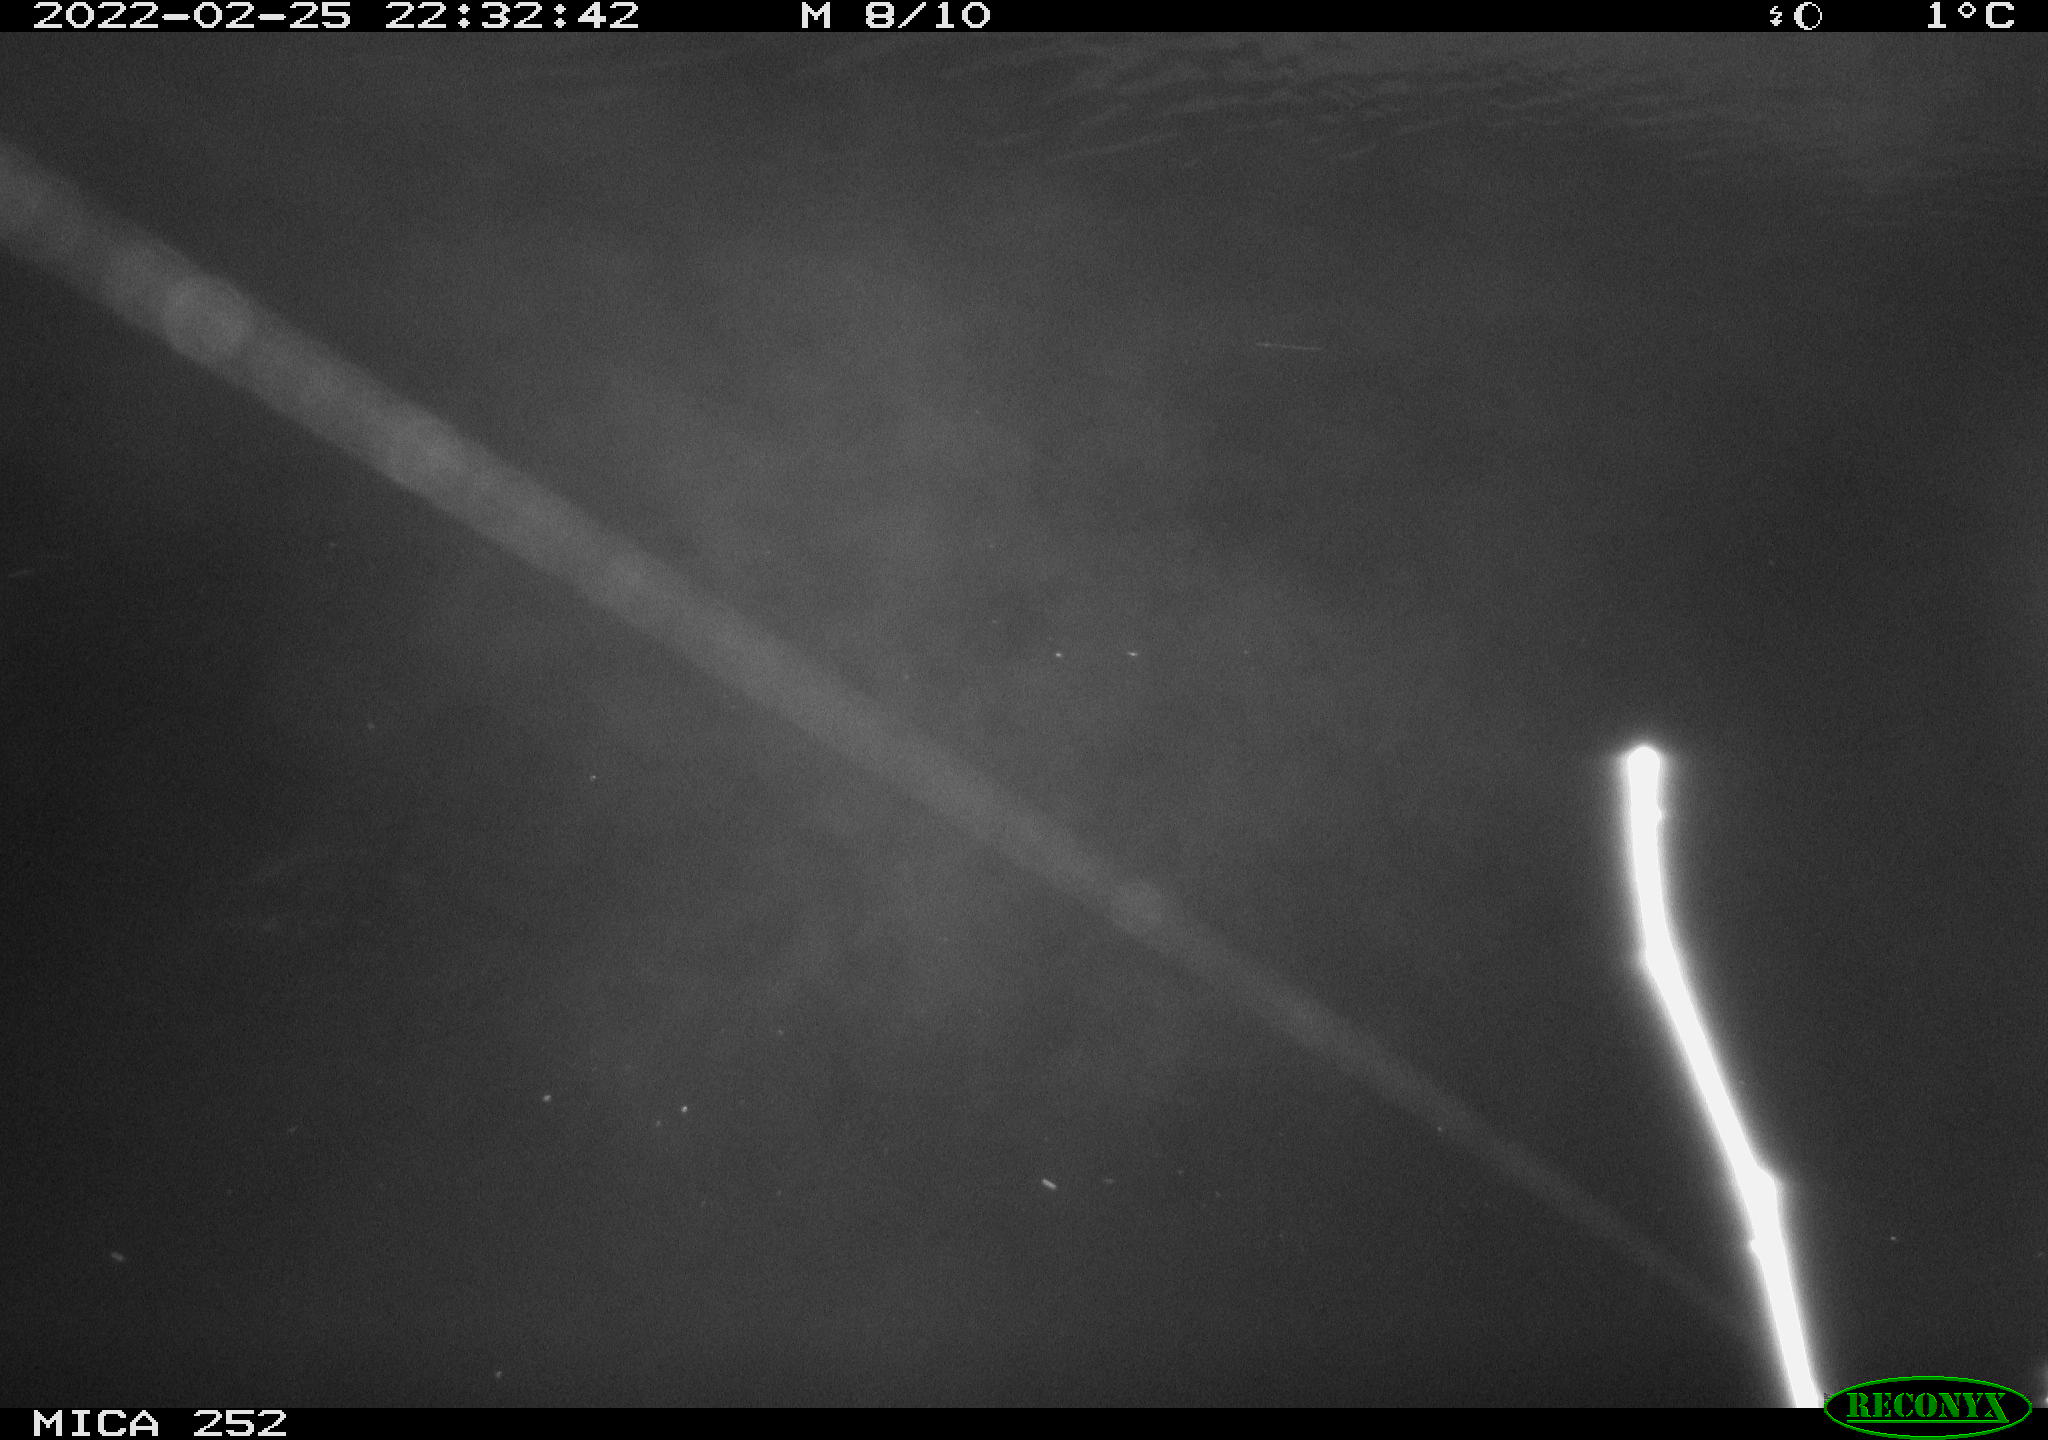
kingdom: Animalia
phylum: Chordata
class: Mammalia
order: Rodentia
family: Castoridae
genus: Castor
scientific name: Castor fiber
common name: Eurasian beaver
